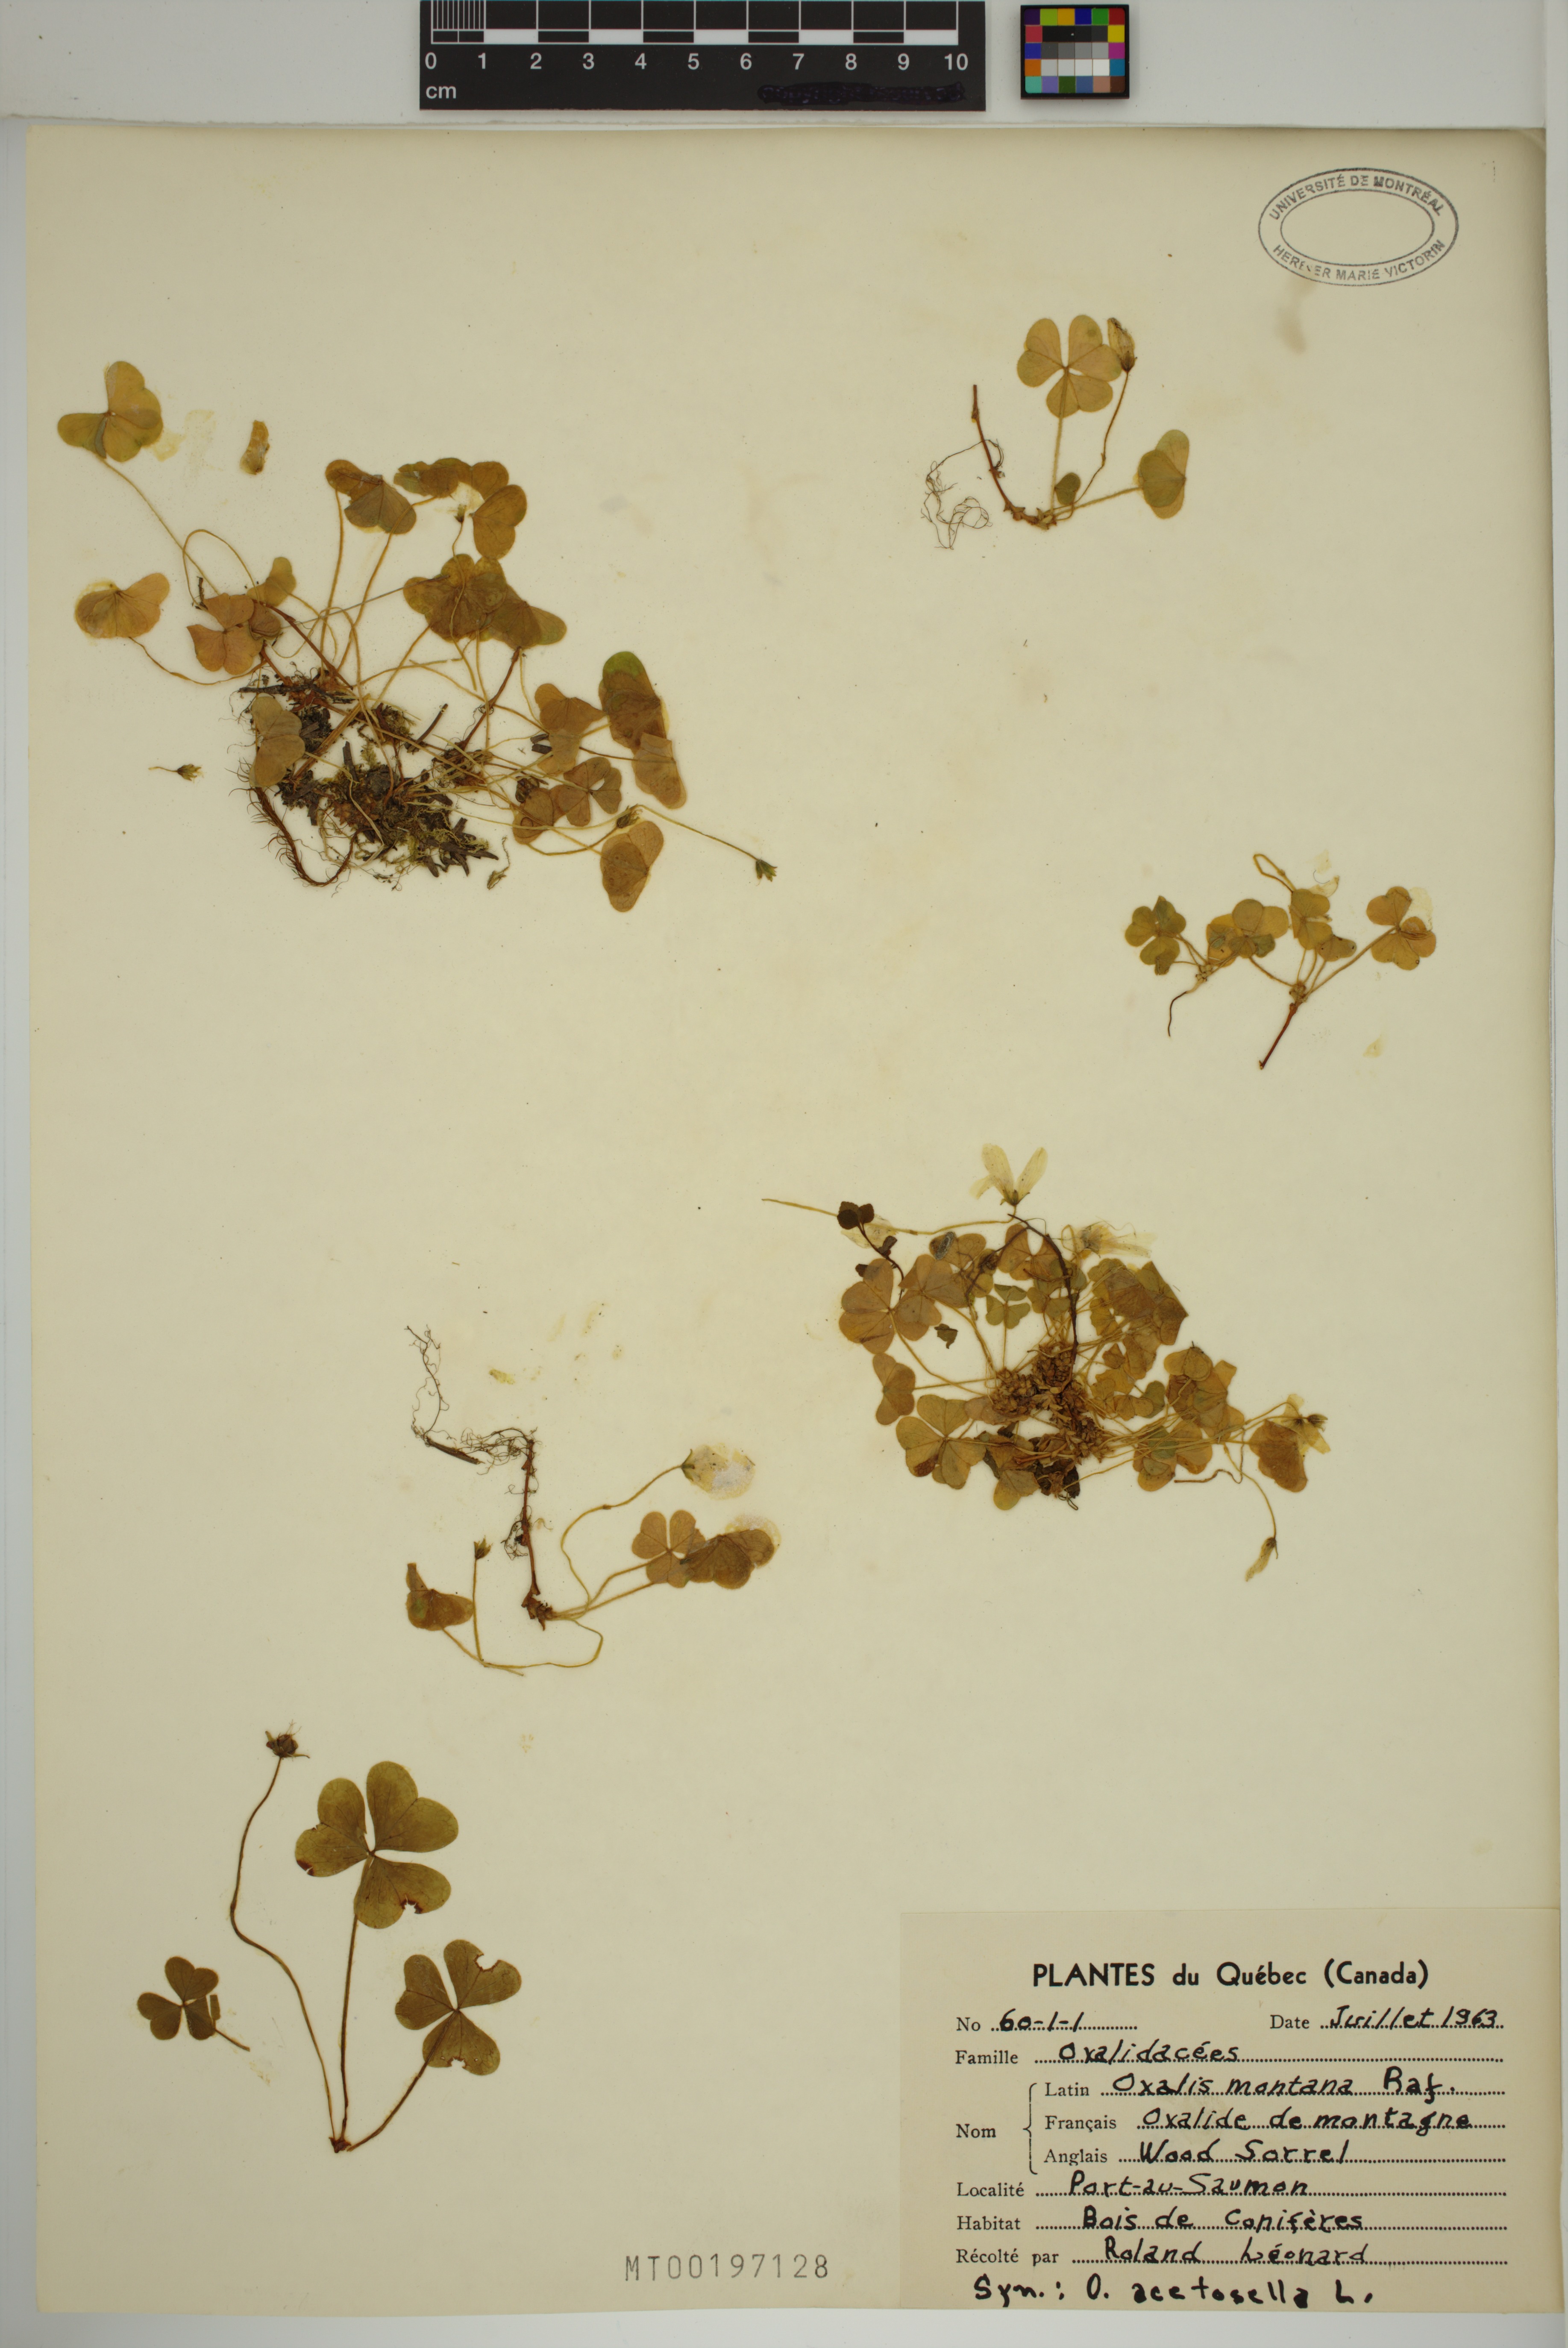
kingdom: Plantae
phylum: Tracheophyta
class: Magnoliopsida
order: Oxalidales
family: Oxalidaceae
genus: Oxalis
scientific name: Oxalis montana
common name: American wood-sorrel
